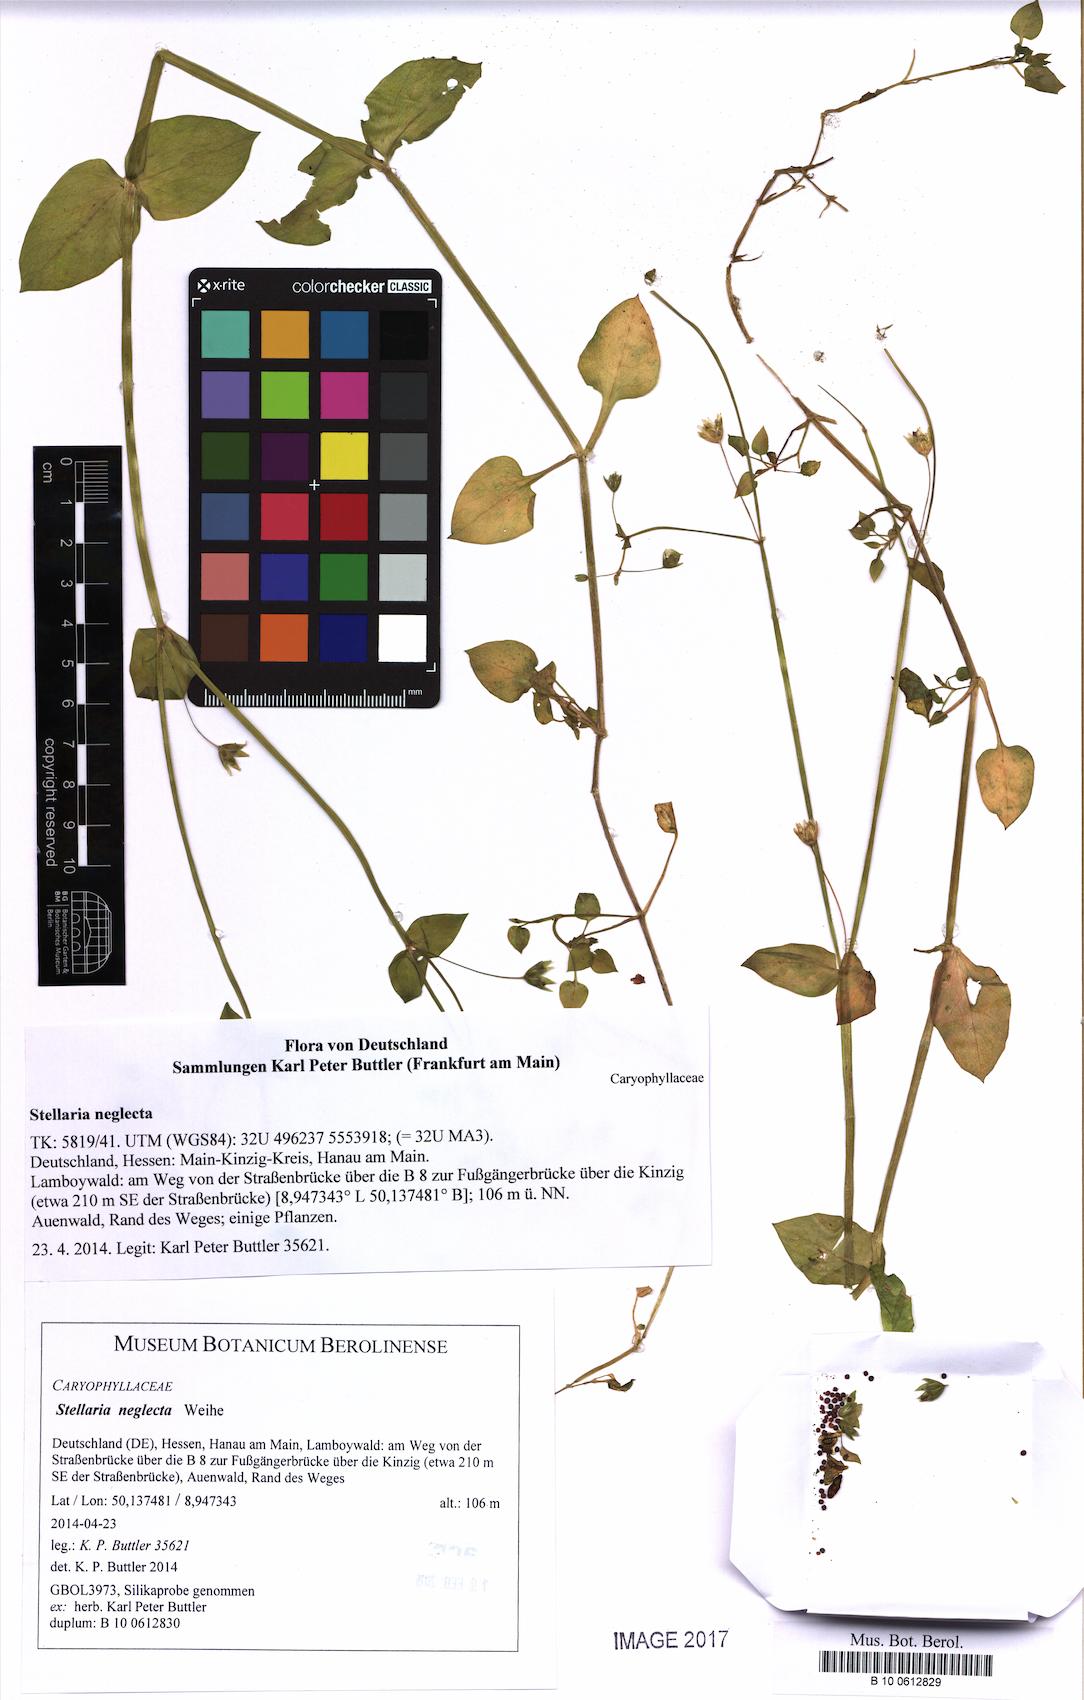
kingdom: Plantae
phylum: Tracheophyta
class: Magnoliopsida
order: Caryophyllales
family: Caryophyllaceae
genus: Stellaria
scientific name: Stellaria neglecta
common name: Greater chickweed
